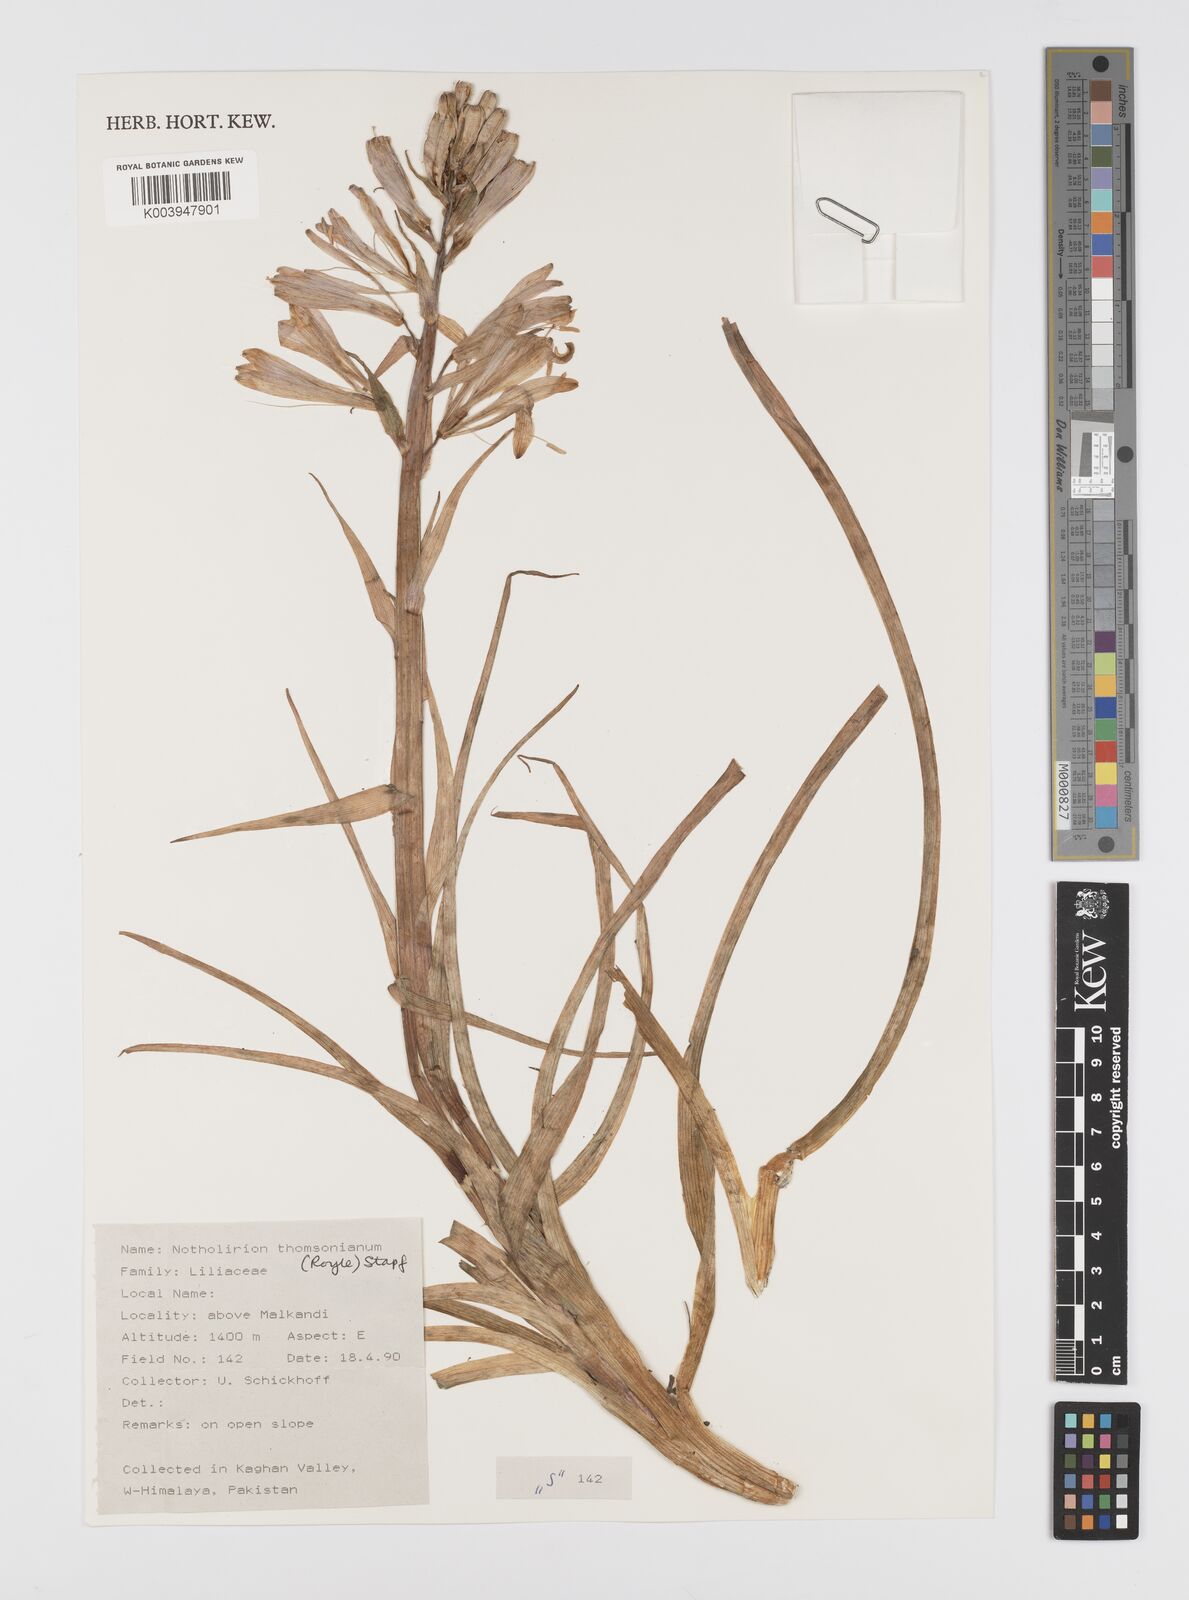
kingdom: Plantae
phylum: Tracheophyta
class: Liliopsida
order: Liliales
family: Liliaceae
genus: Notholirion
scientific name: Notholirion thomsonianum
